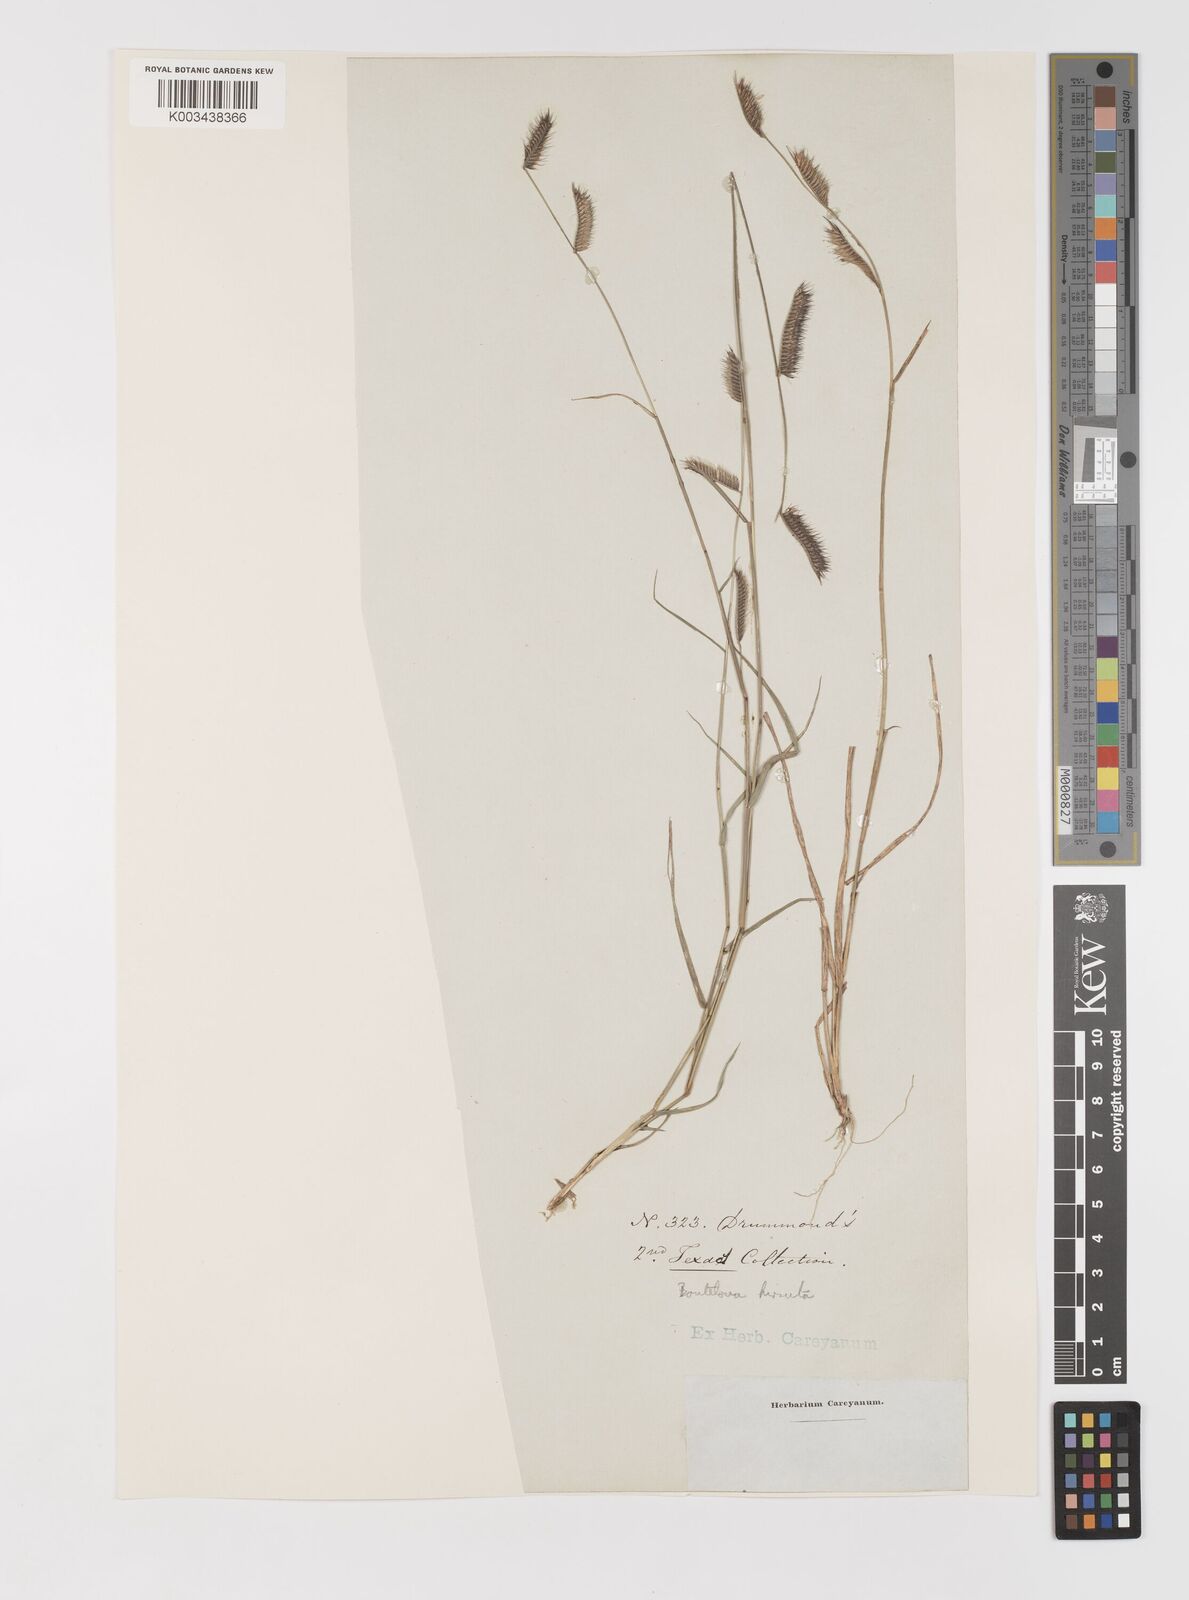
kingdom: Plantae
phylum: Tracheophyta
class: Liliopsida
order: Poales
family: Poaceae
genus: Bouteloua
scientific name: Bouteloua hirsuta
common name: Hairy grama
